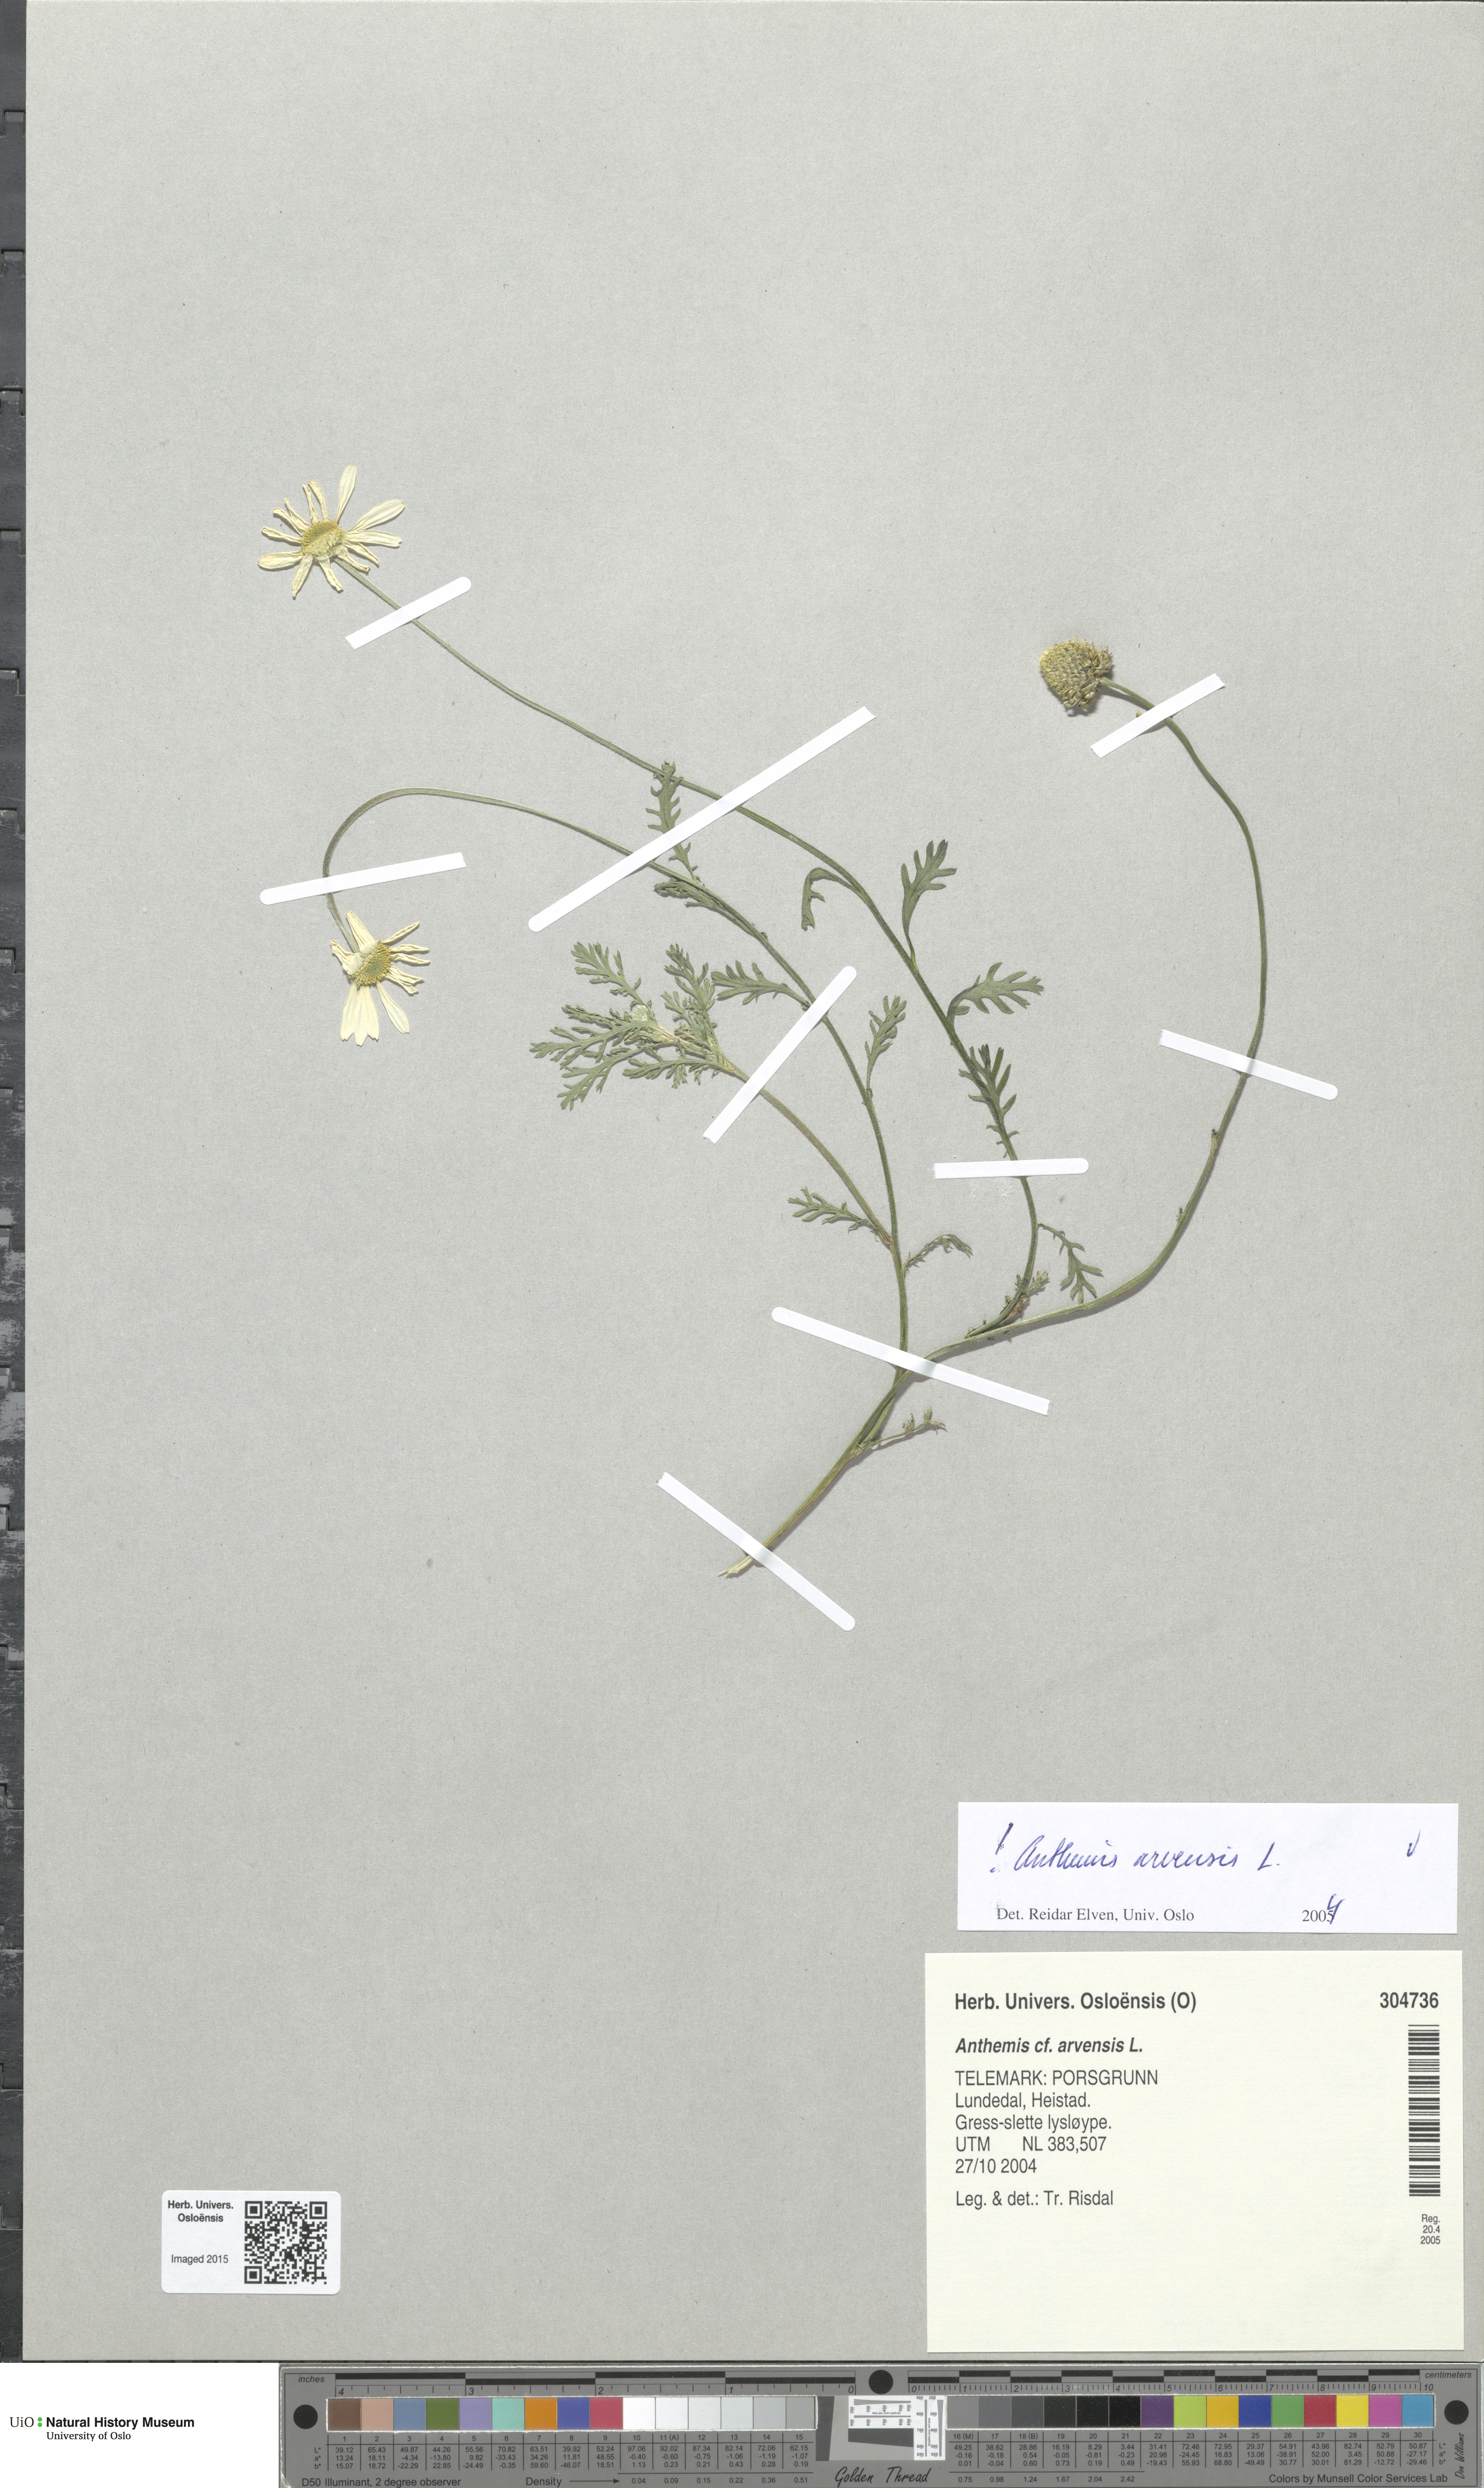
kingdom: Plantae
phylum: Tracheophyta
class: Magnoliopsida
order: Asterales
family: Asteraceae
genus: Anthemis
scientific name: Anthemis arvensis
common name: Corn chamomile
